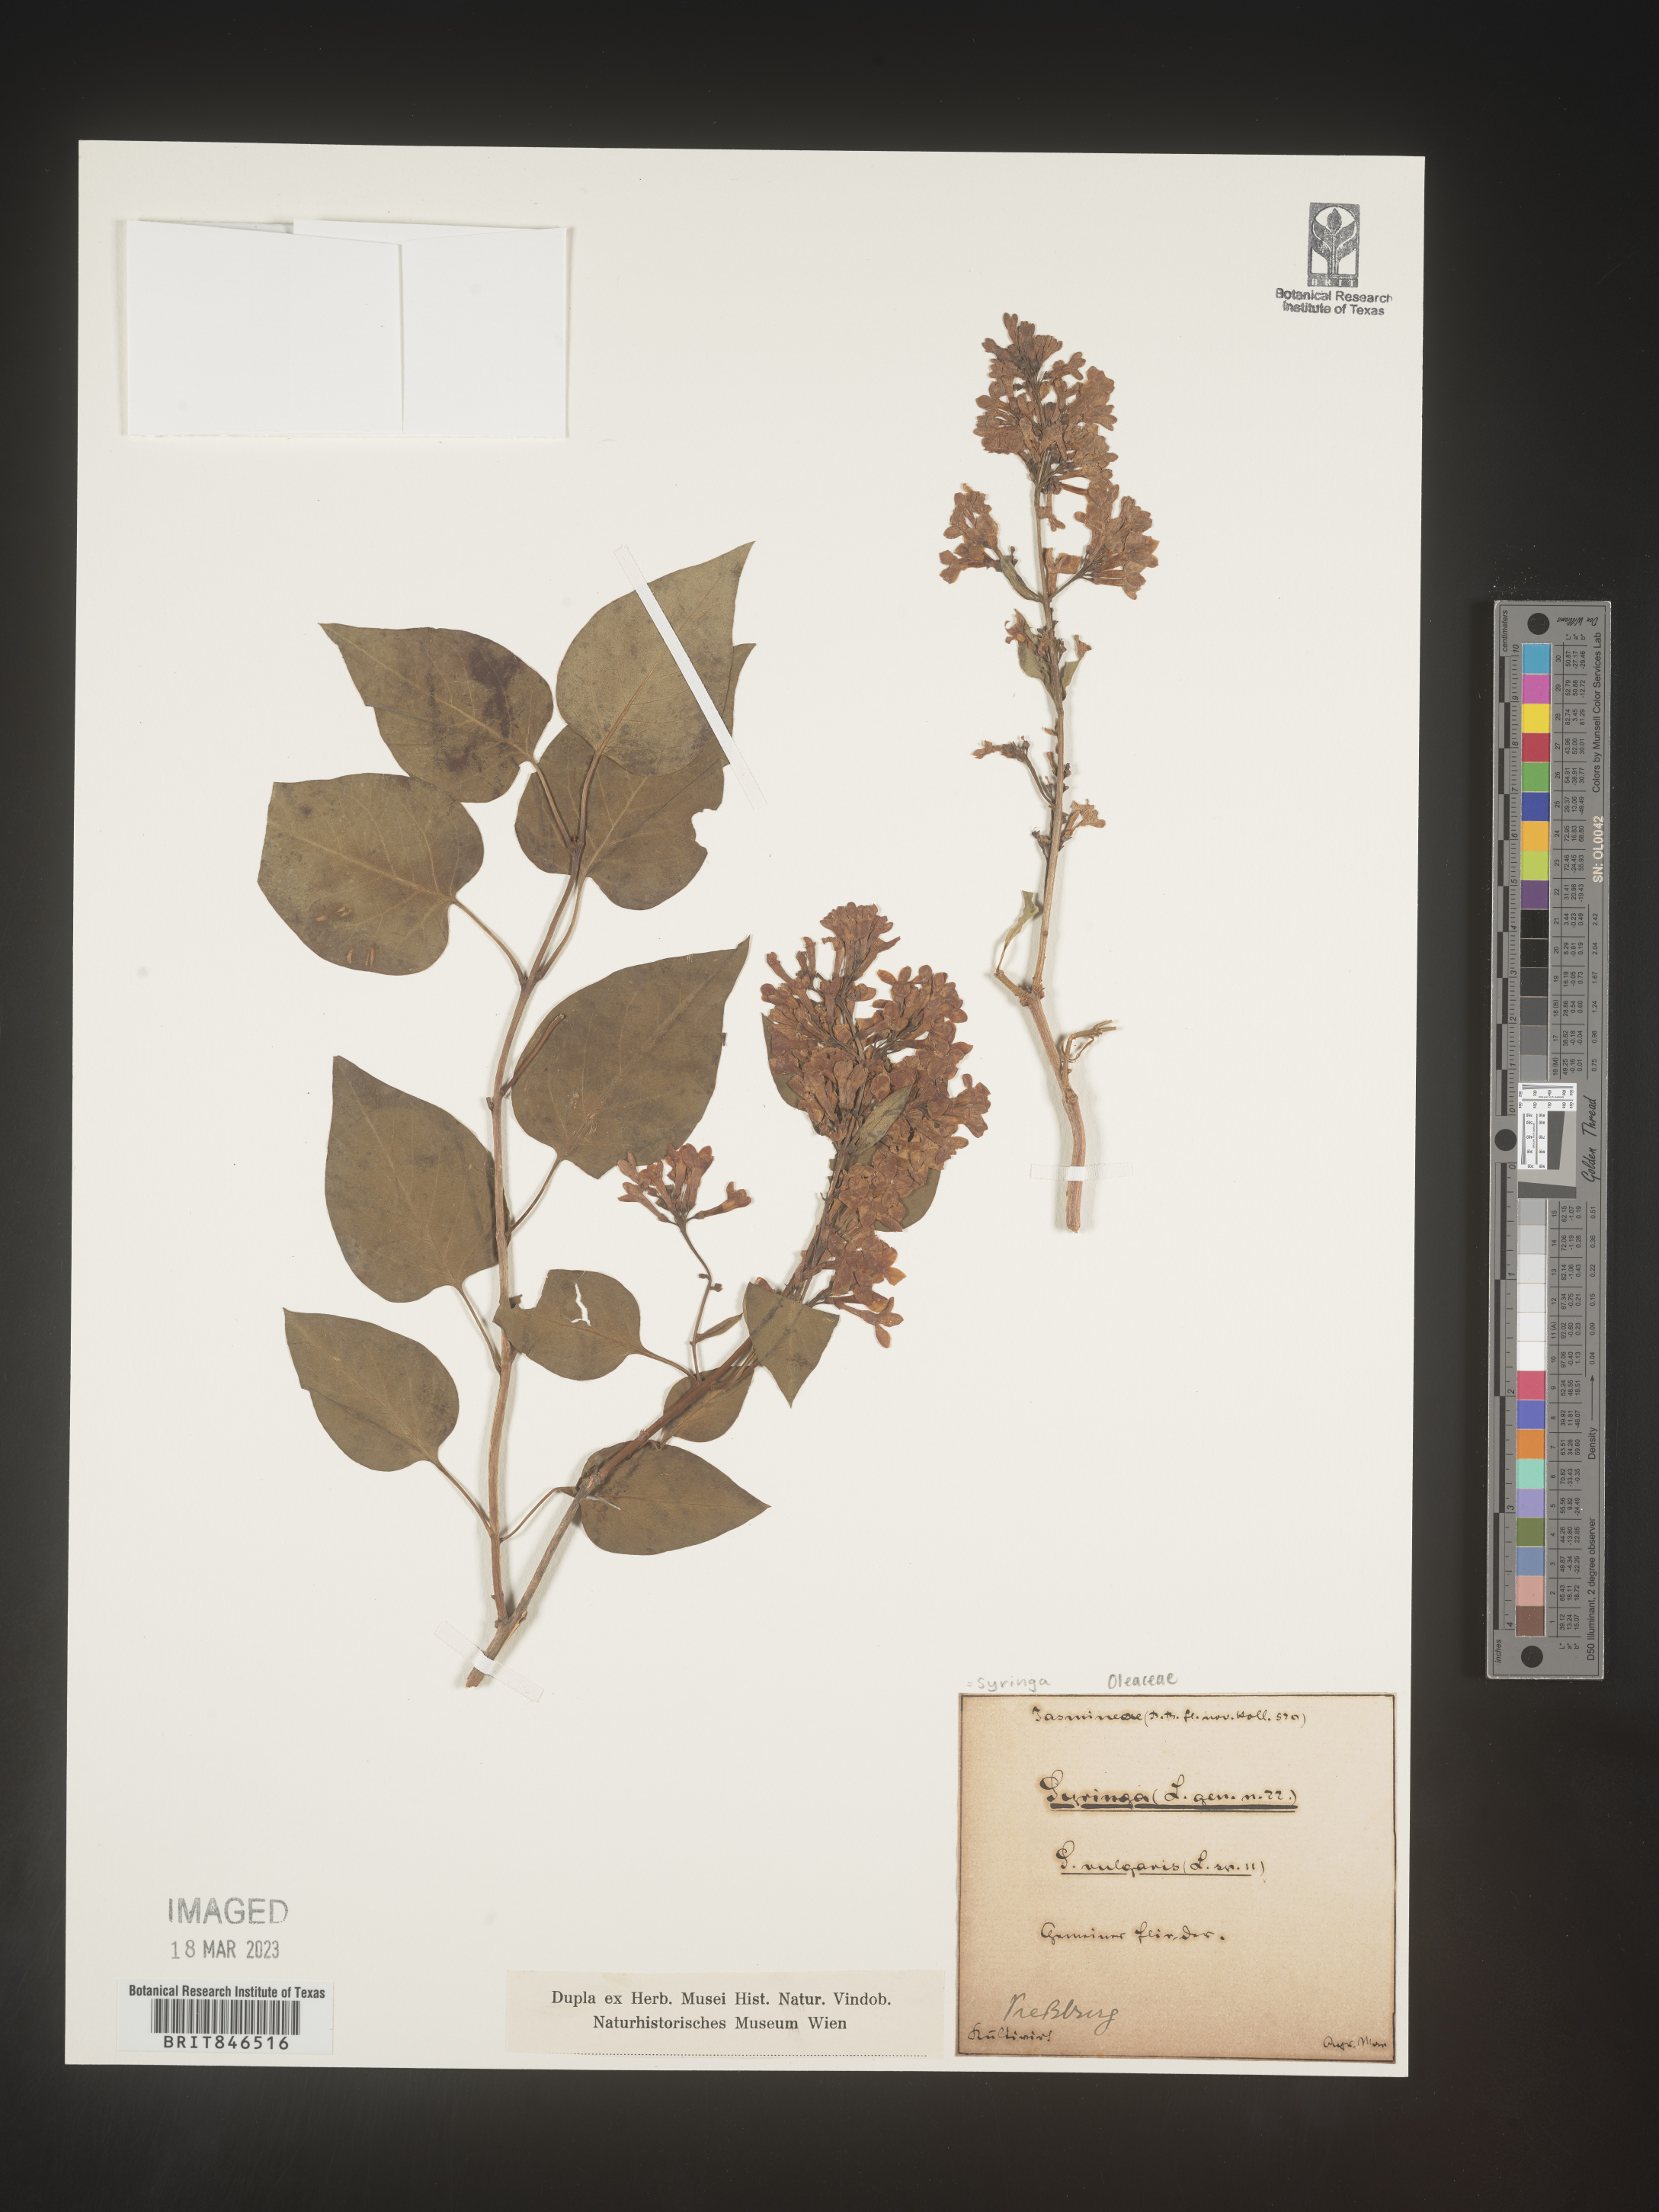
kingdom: Plantae
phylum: Tracheophyta
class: Magnoliopsida
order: Lamiales
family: Oleaceae
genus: Syringa
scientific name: Syringa
